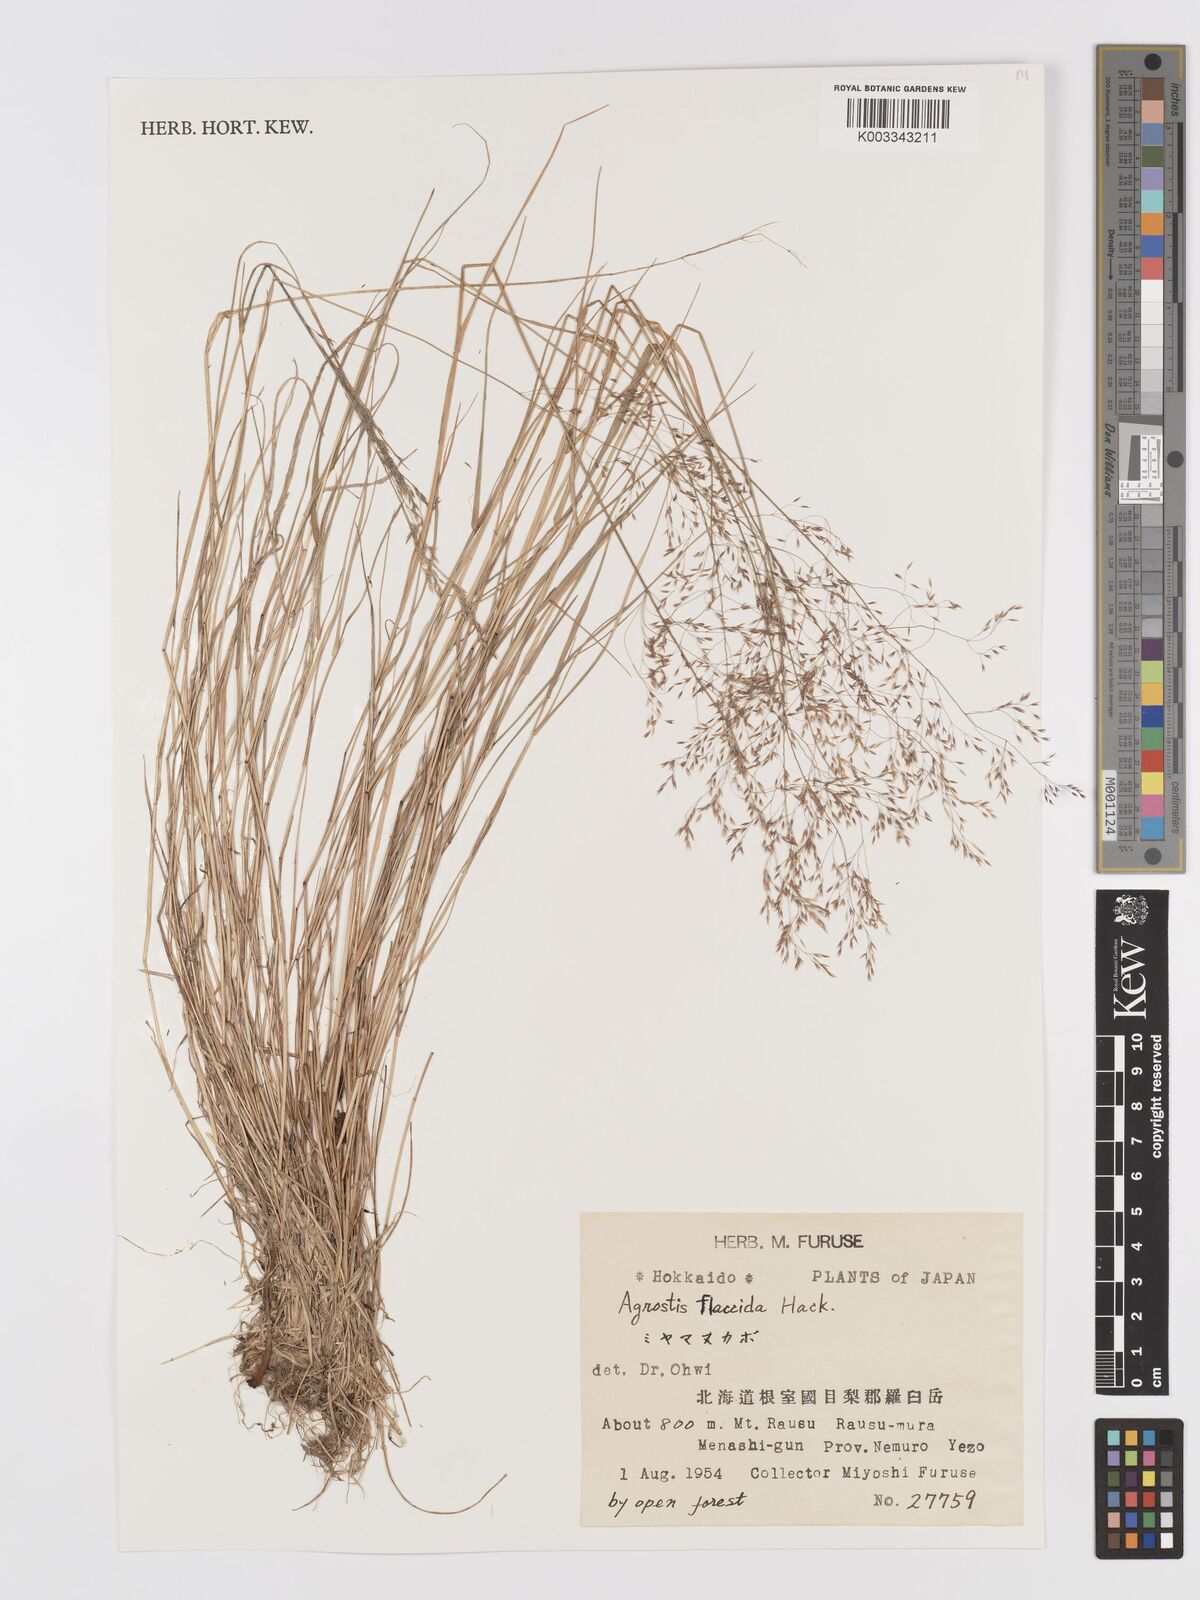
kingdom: Plantae
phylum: Tracheophyta
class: Liliopsida
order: Poales
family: Poaceae
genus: Agrostis
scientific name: Agrostis flaccida
